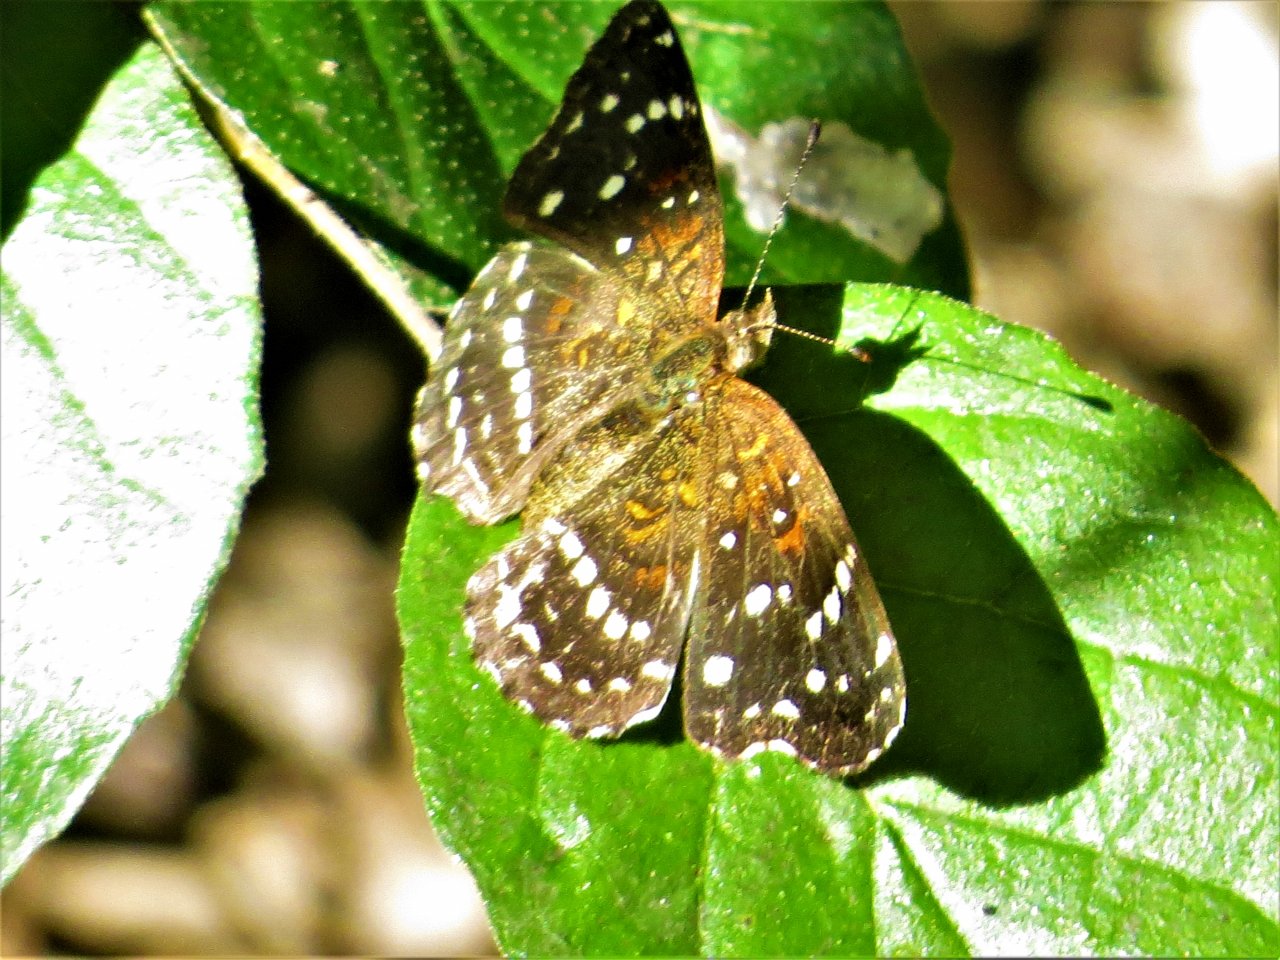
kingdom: Animalia
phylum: Arthropoda
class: Insecta
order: Lepidoptera
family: Nymphalidae
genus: Anthanassa
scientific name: Anthanassa texana
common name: Texan Crescent
